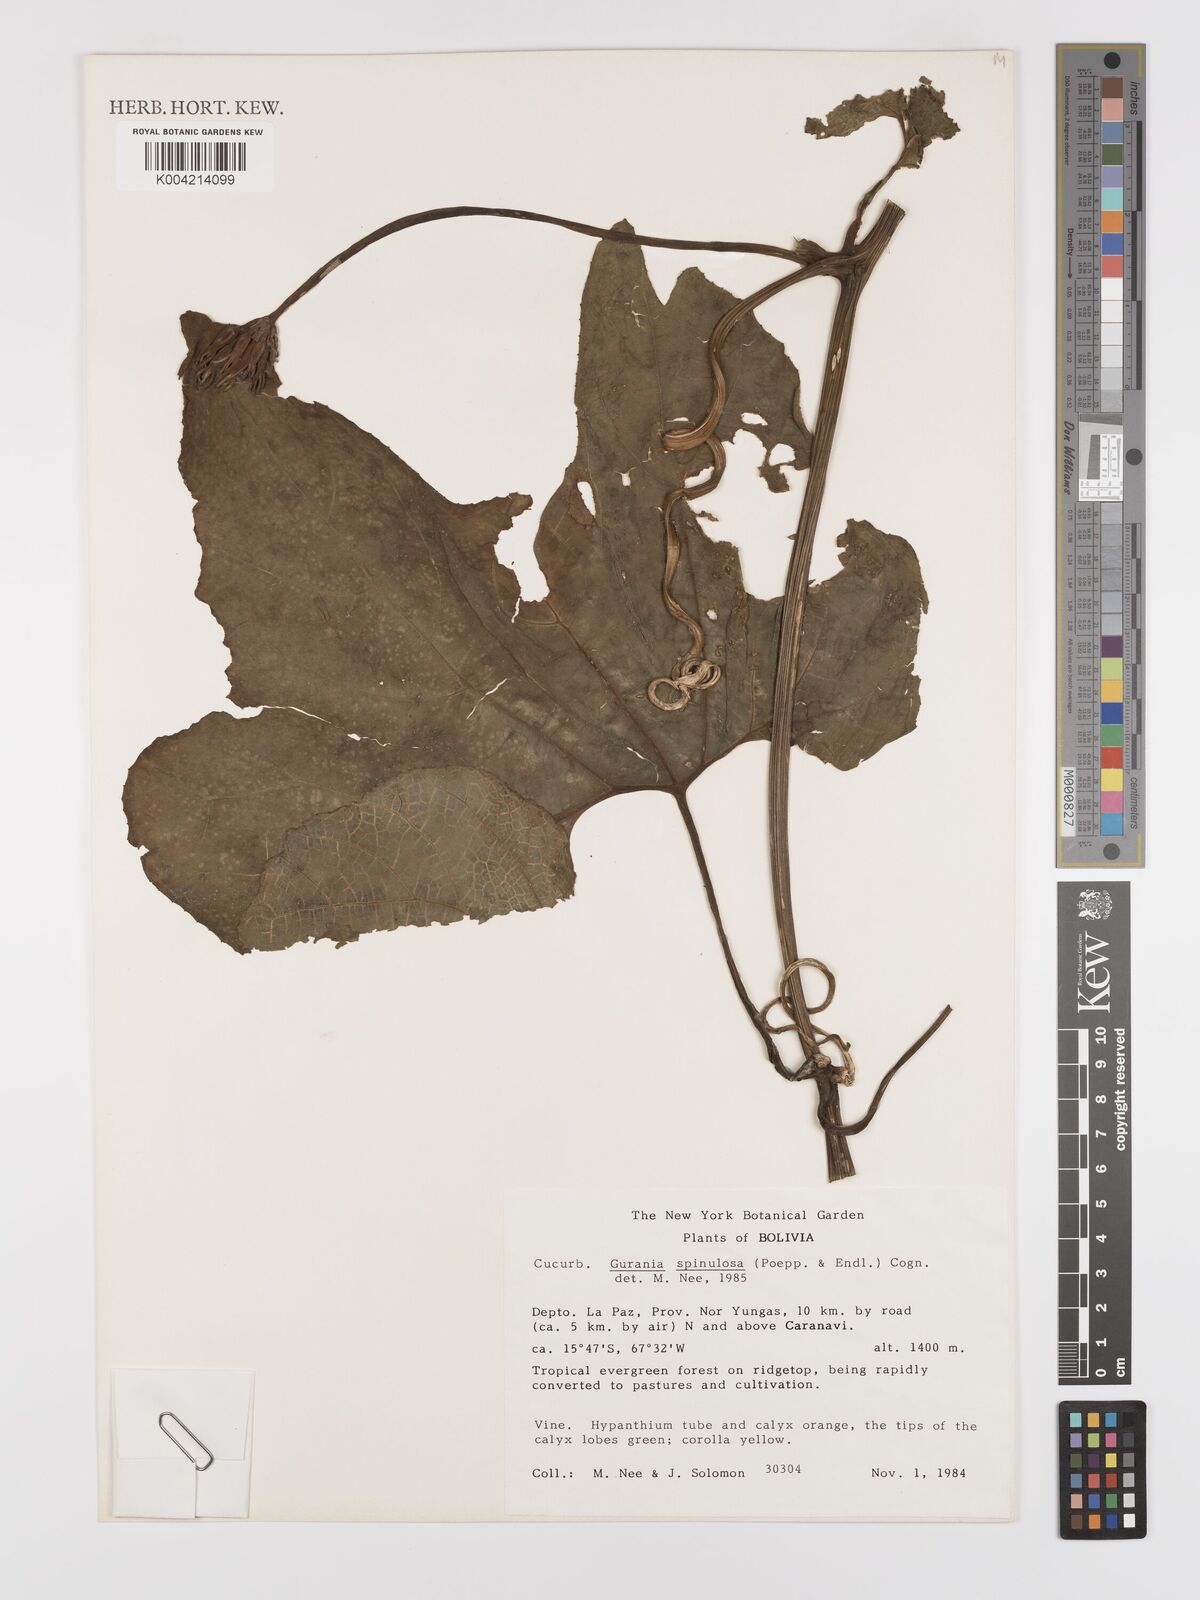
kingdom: Plantae
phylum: Tracheophyta
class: Magnoliopsida
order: Cucurbitales
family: Cucurbitaceae
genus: Gurania
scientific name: Gurania lobata
